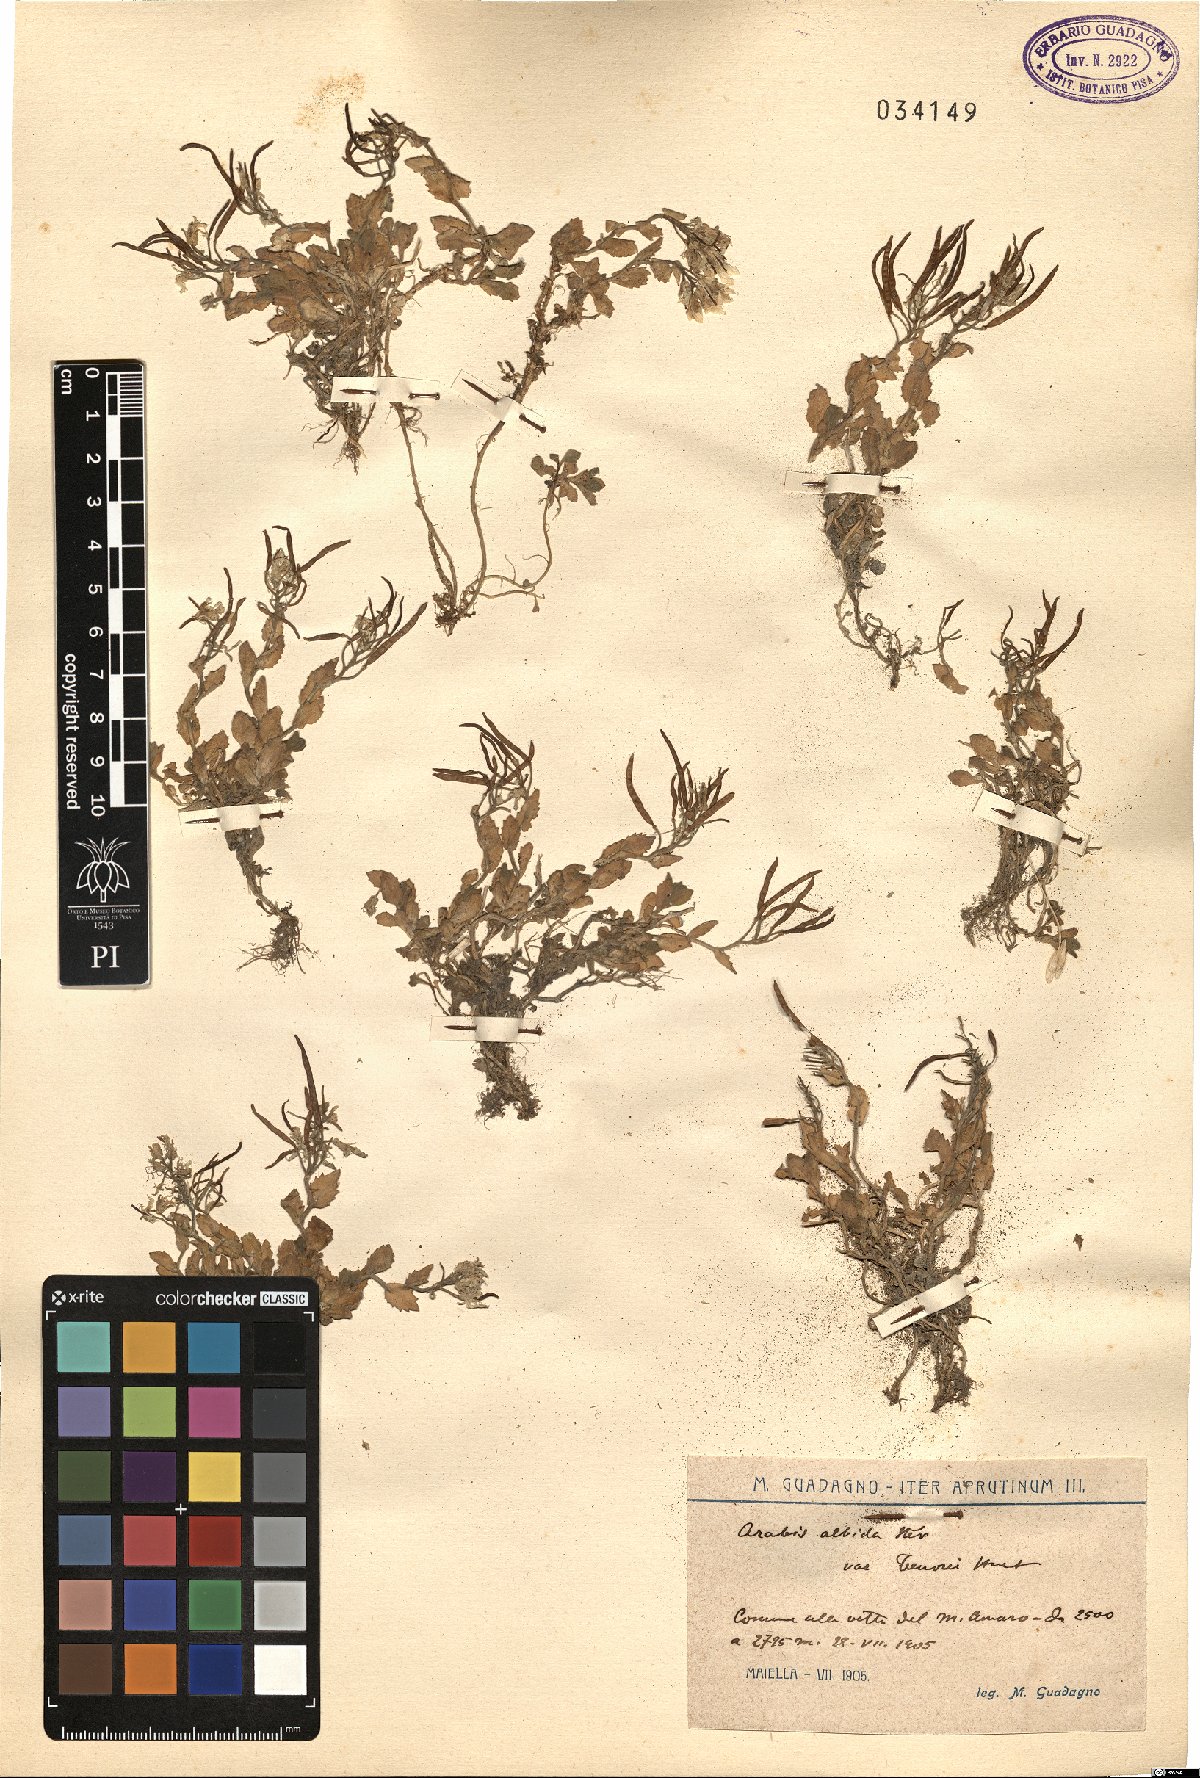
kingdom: Plantae
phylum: Tracheophyta
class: Magnoliopsida
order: Brassicales
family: Brassicaceae
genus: Arabis
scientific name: Arabis
